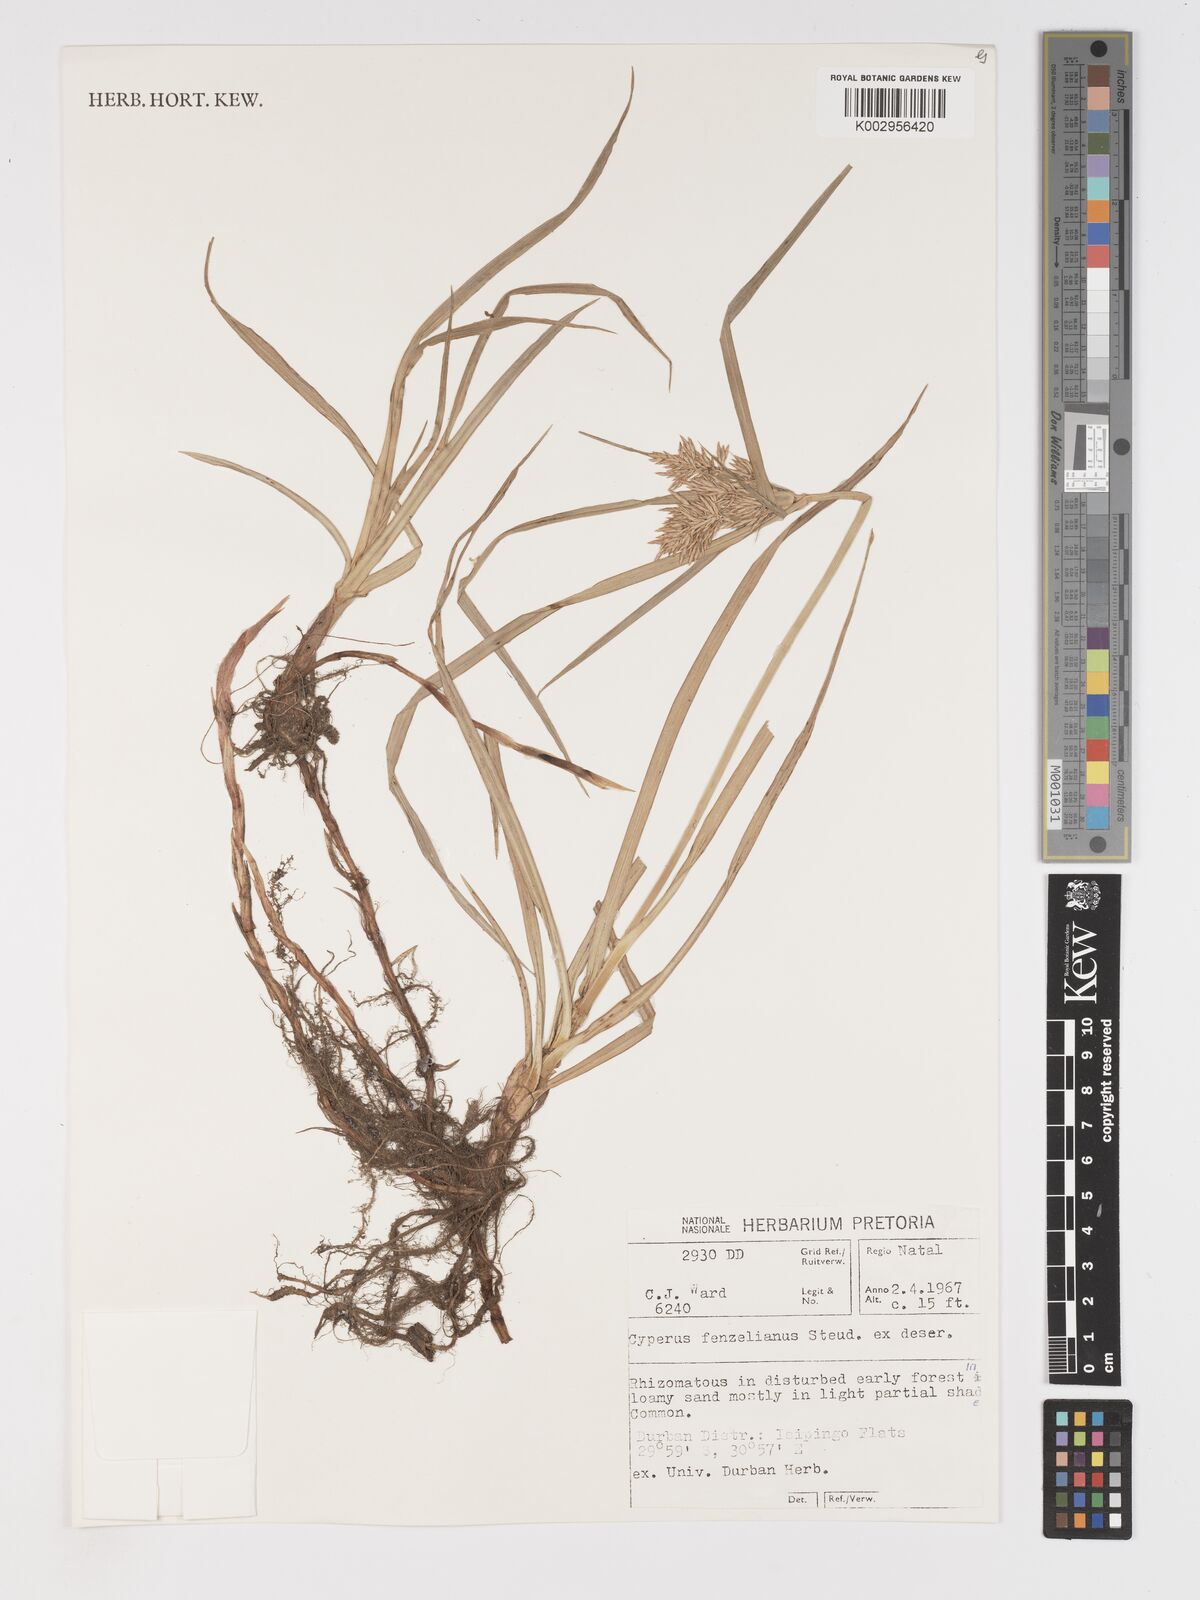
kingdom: Plantae
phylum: Tracheophyta
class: Liliopsida
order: Poales
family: Cyperaceae
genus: Cyperus
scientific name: Cyperus longus
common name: Galingale
